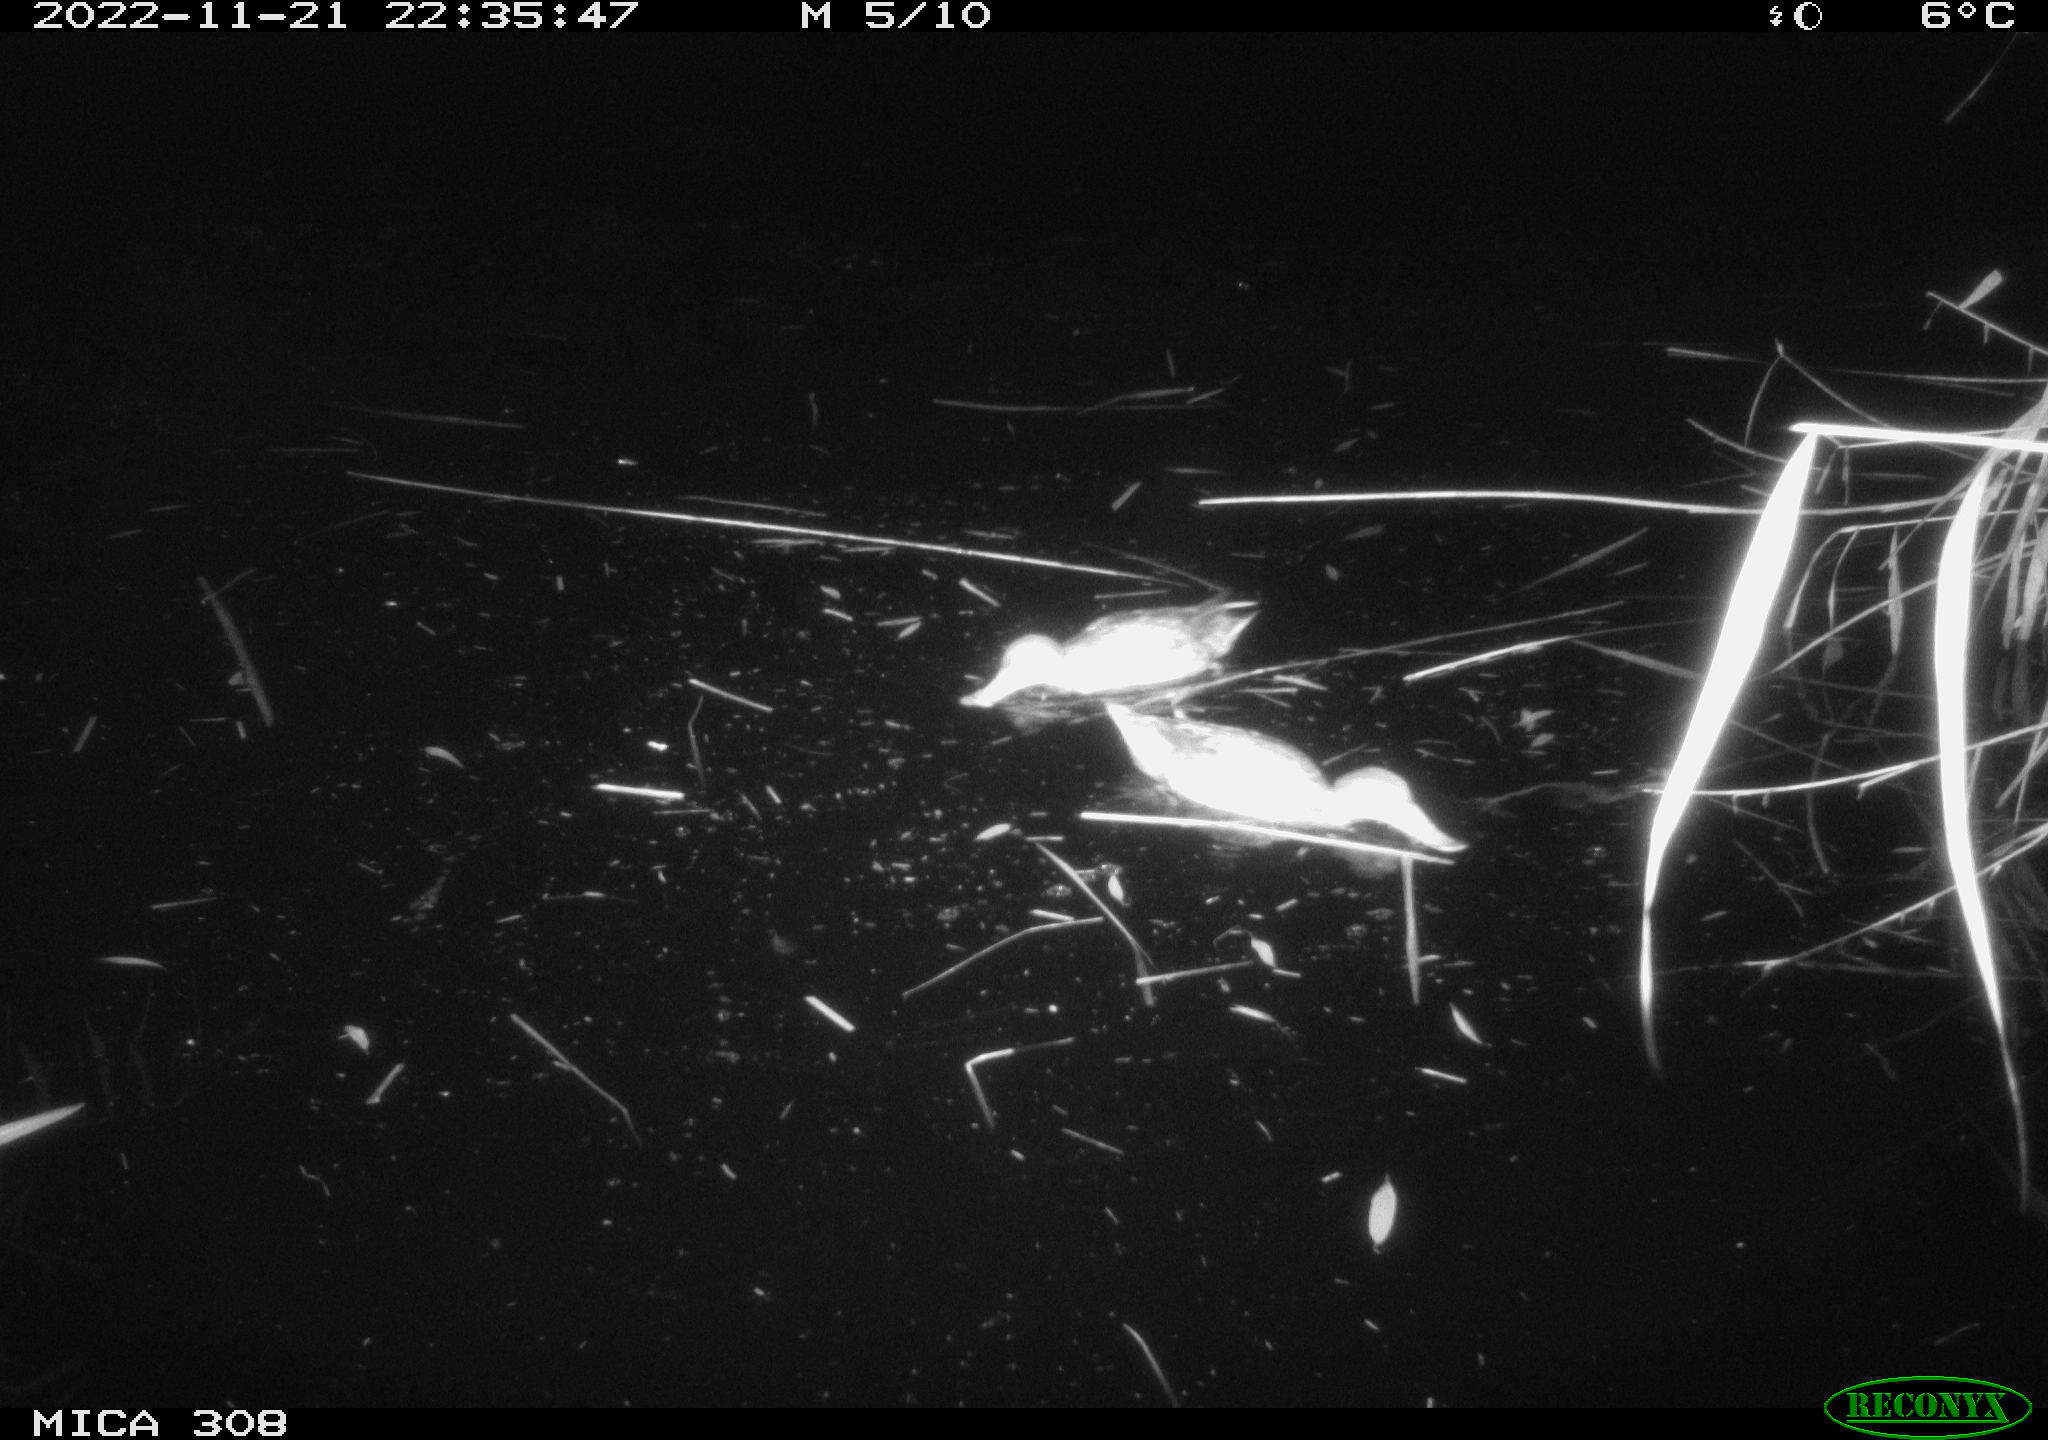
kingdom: Animalia
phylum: Chordata
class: Aves
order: Anseriformes
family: Anatidae
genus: Anas
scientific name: Anas
